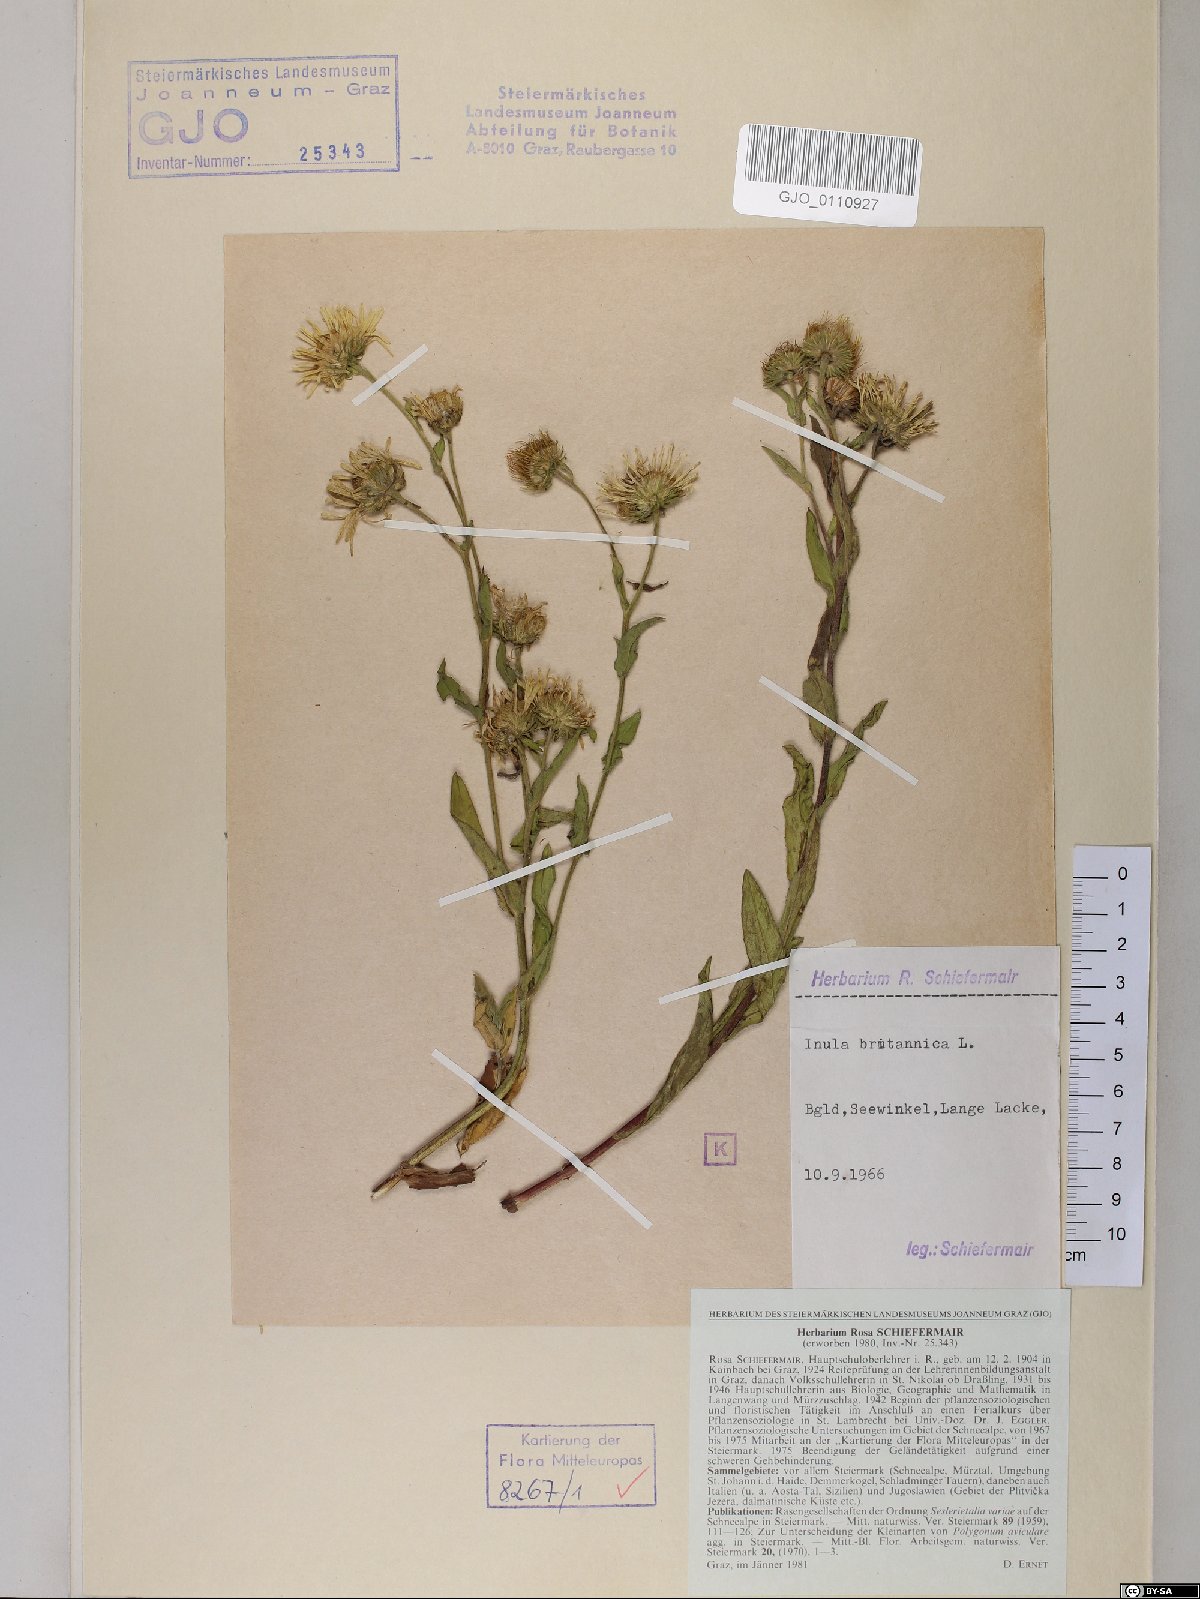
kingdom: Plantae
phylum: Tracheophyta
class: Magnoliopsida
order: Asterales
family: Asteraceae
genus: Pentanema
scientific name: Pentanema britannicum
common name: British elecampane
